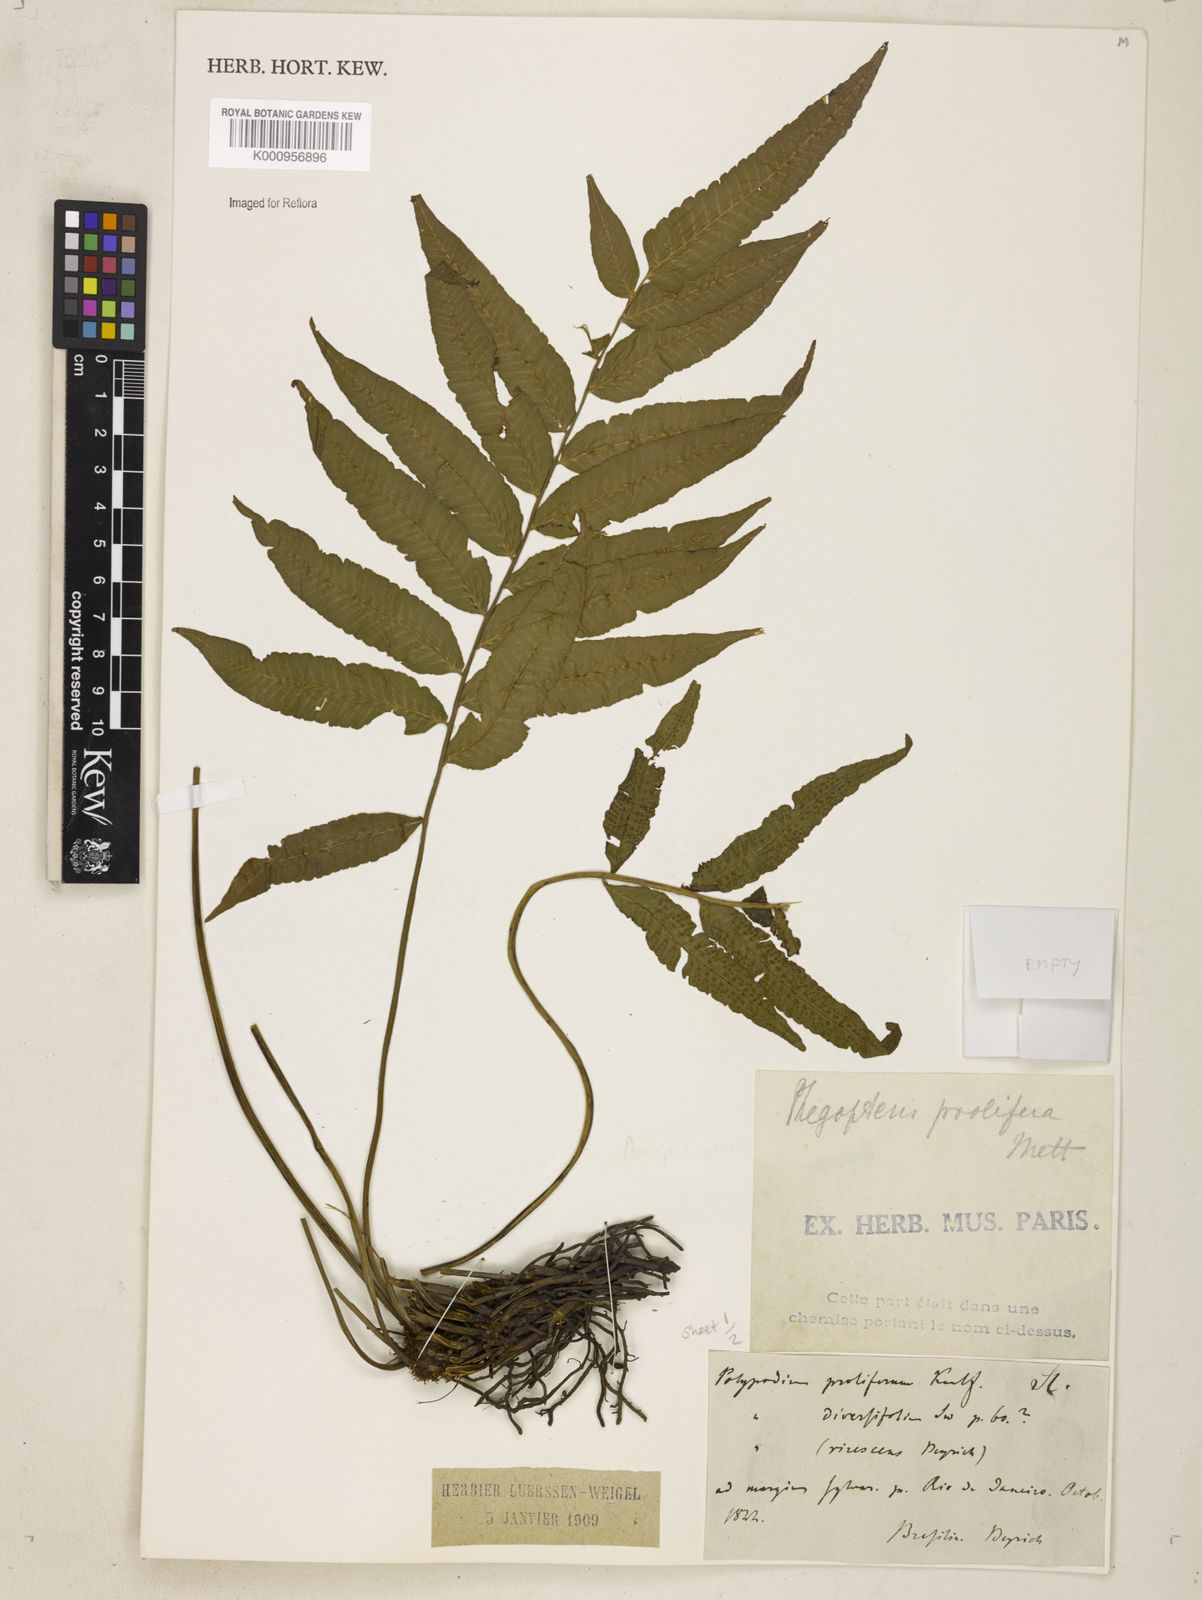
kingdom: Plantae
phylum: Tracheophyta
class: Polypodiopsida
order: Polypodiales
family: Thelypteridaceae
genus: Meniscium
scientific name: Meniscium
